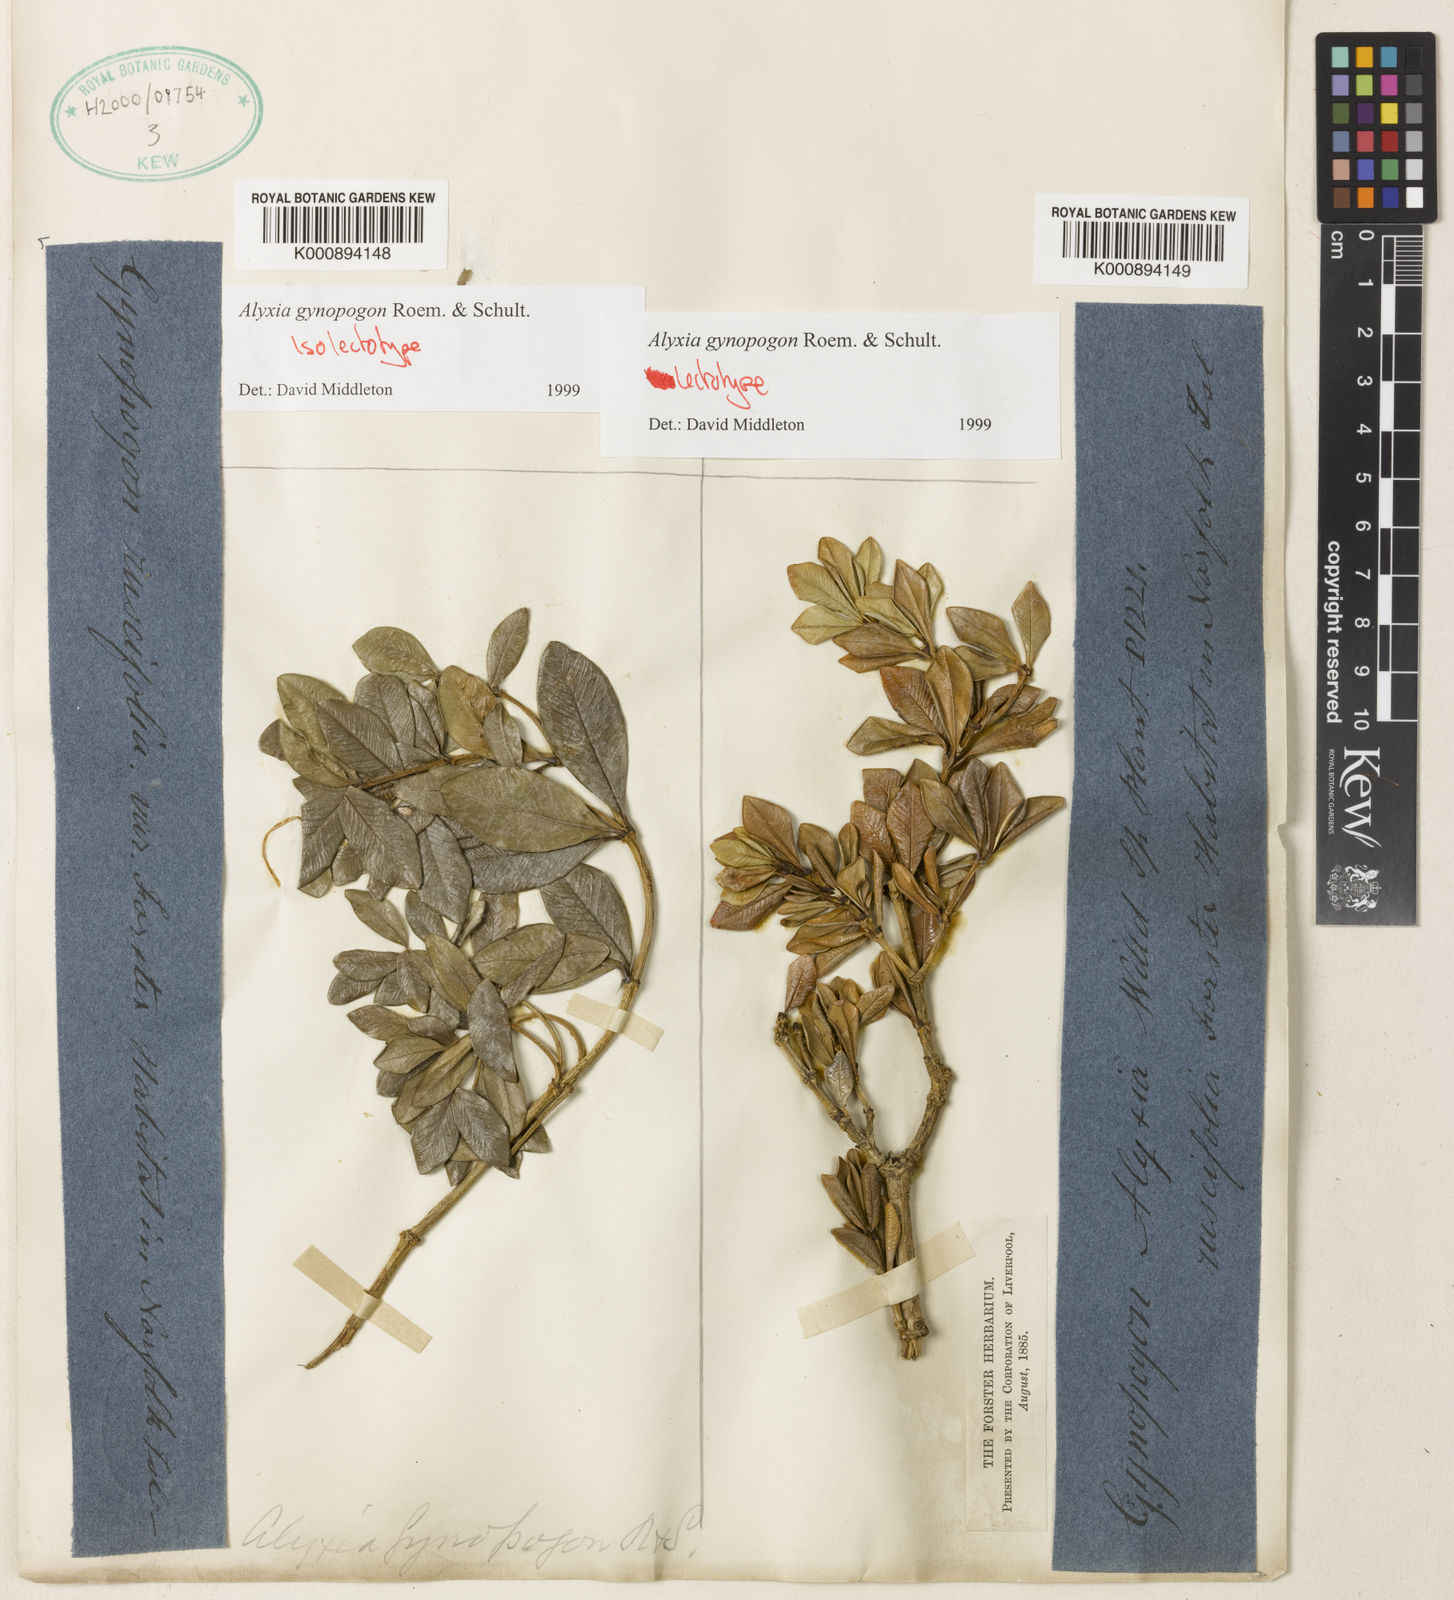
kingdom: Plantae
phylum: Tracheophyta
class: Magnoliopsida
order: Gentianales
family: Apocynaceae
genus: Alyxia
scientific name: Alyxia gynopogon
